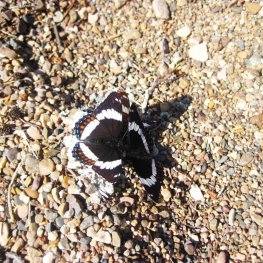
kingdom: Animalia
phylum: Arthropoda
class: Insecta
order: Lepidoptera
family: Nymphalidae
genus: Limenitis
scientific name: Limenitis arthemis
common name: Red-spotted Admiral
